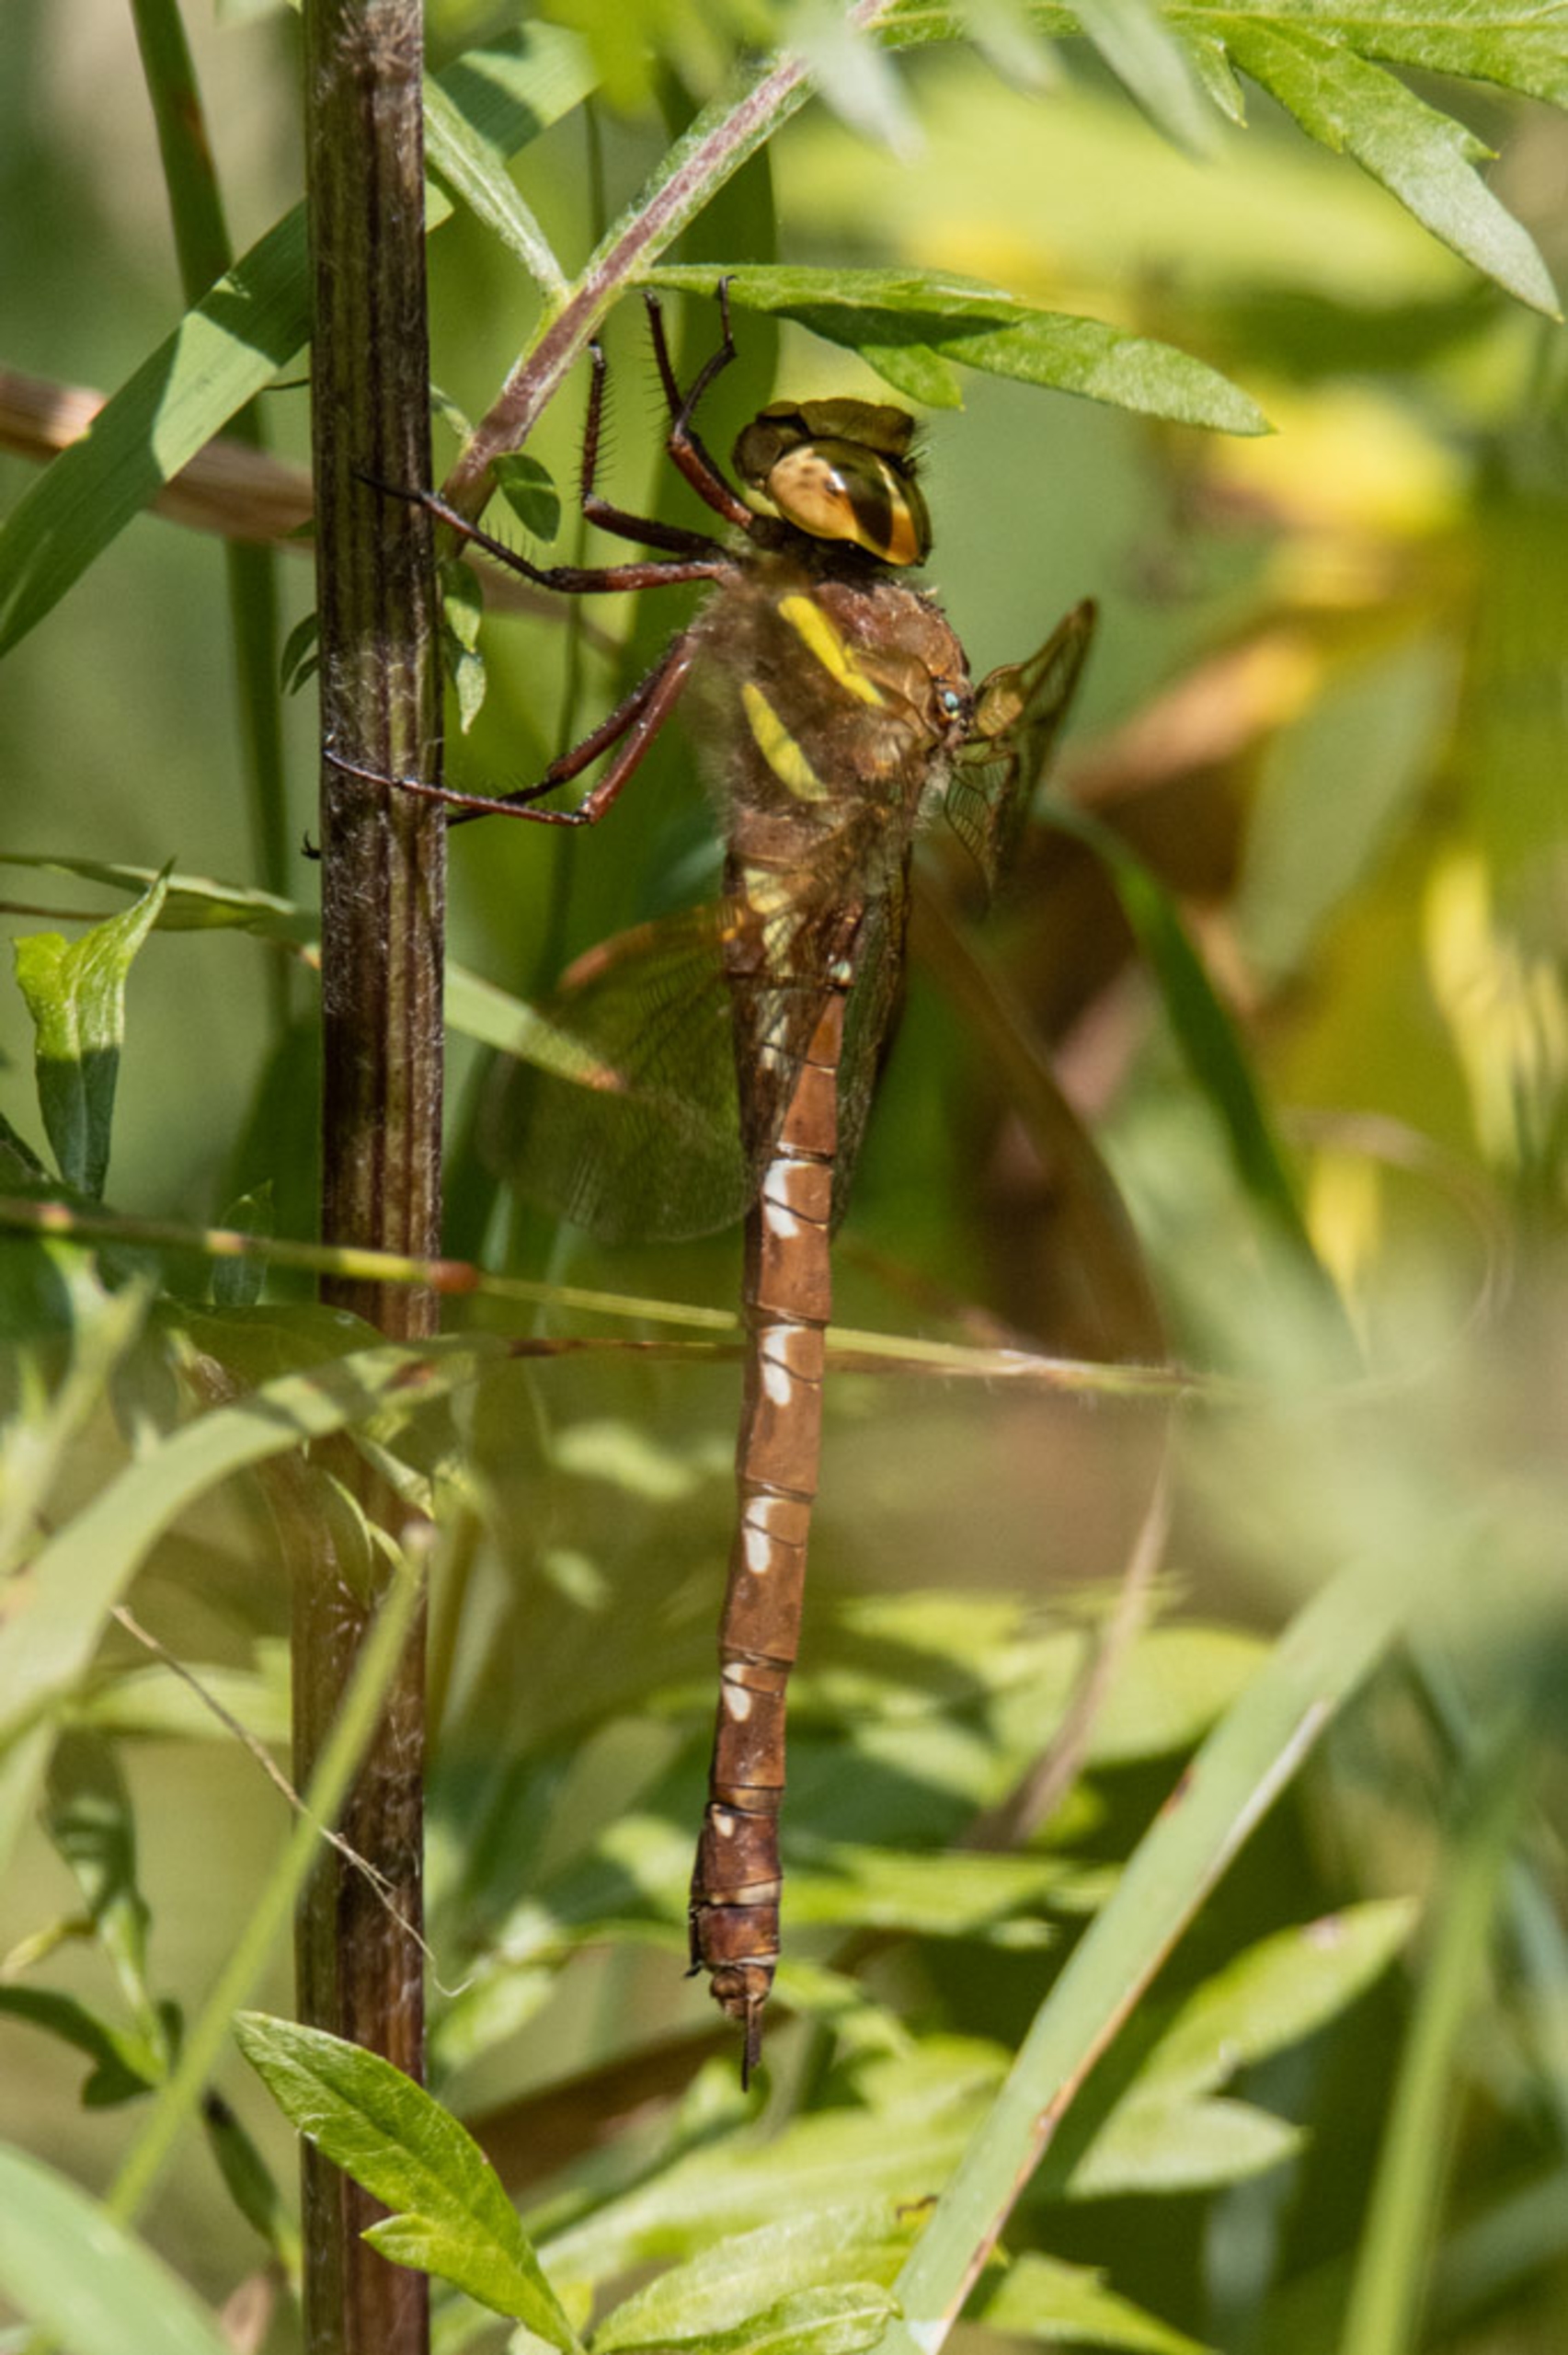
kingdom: Animalia
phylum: Arthropoda
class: Insecta
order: Odonata
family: Aeshnidae
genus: Aeshna
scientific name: Aeshna grandis
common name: Brun mosaikguldsmed
